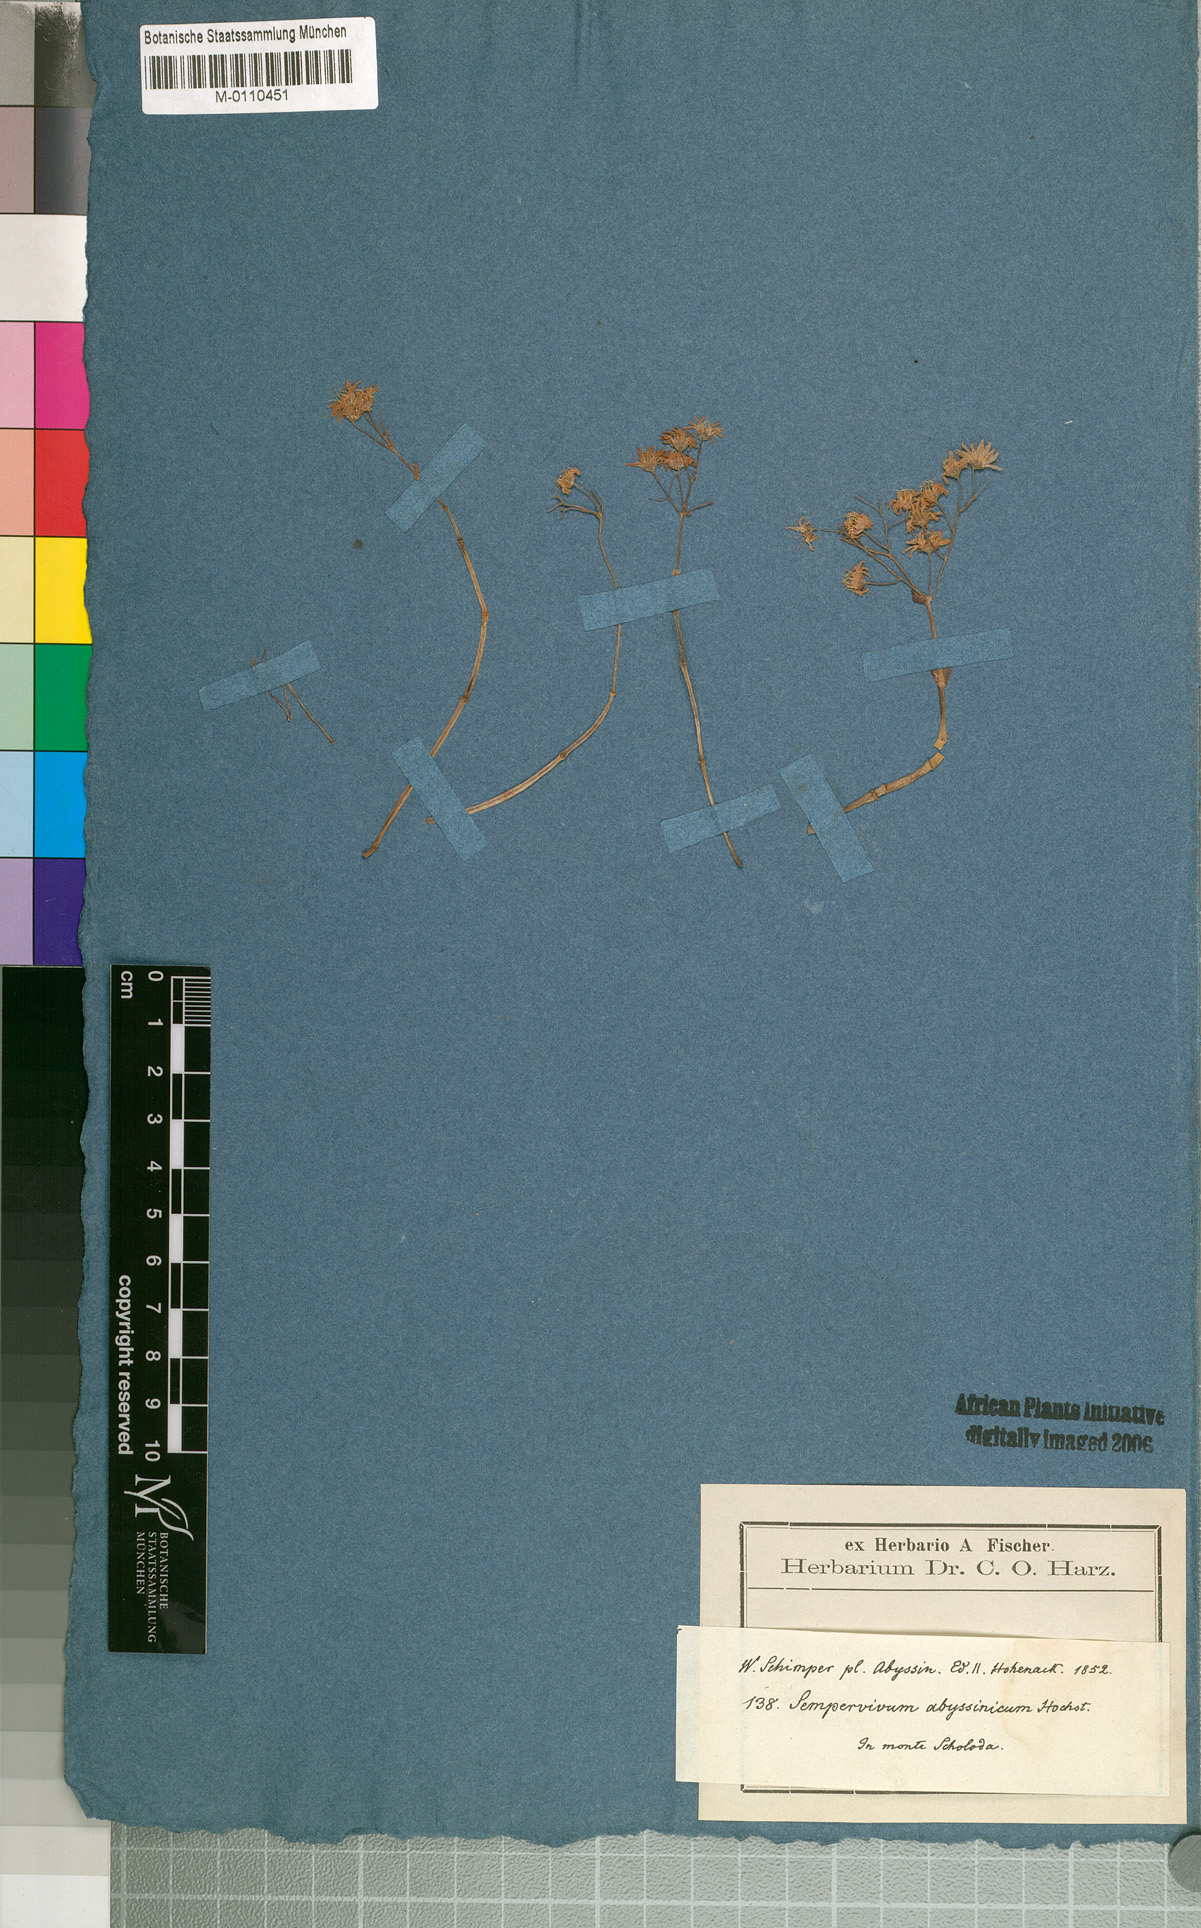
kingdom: Plantae
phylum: Tracheophyta
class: Magnoliopsida
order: Saxifragales
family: Crassulaceae
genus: Hypagophytum
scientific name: Hypagophytum abyssinicum
